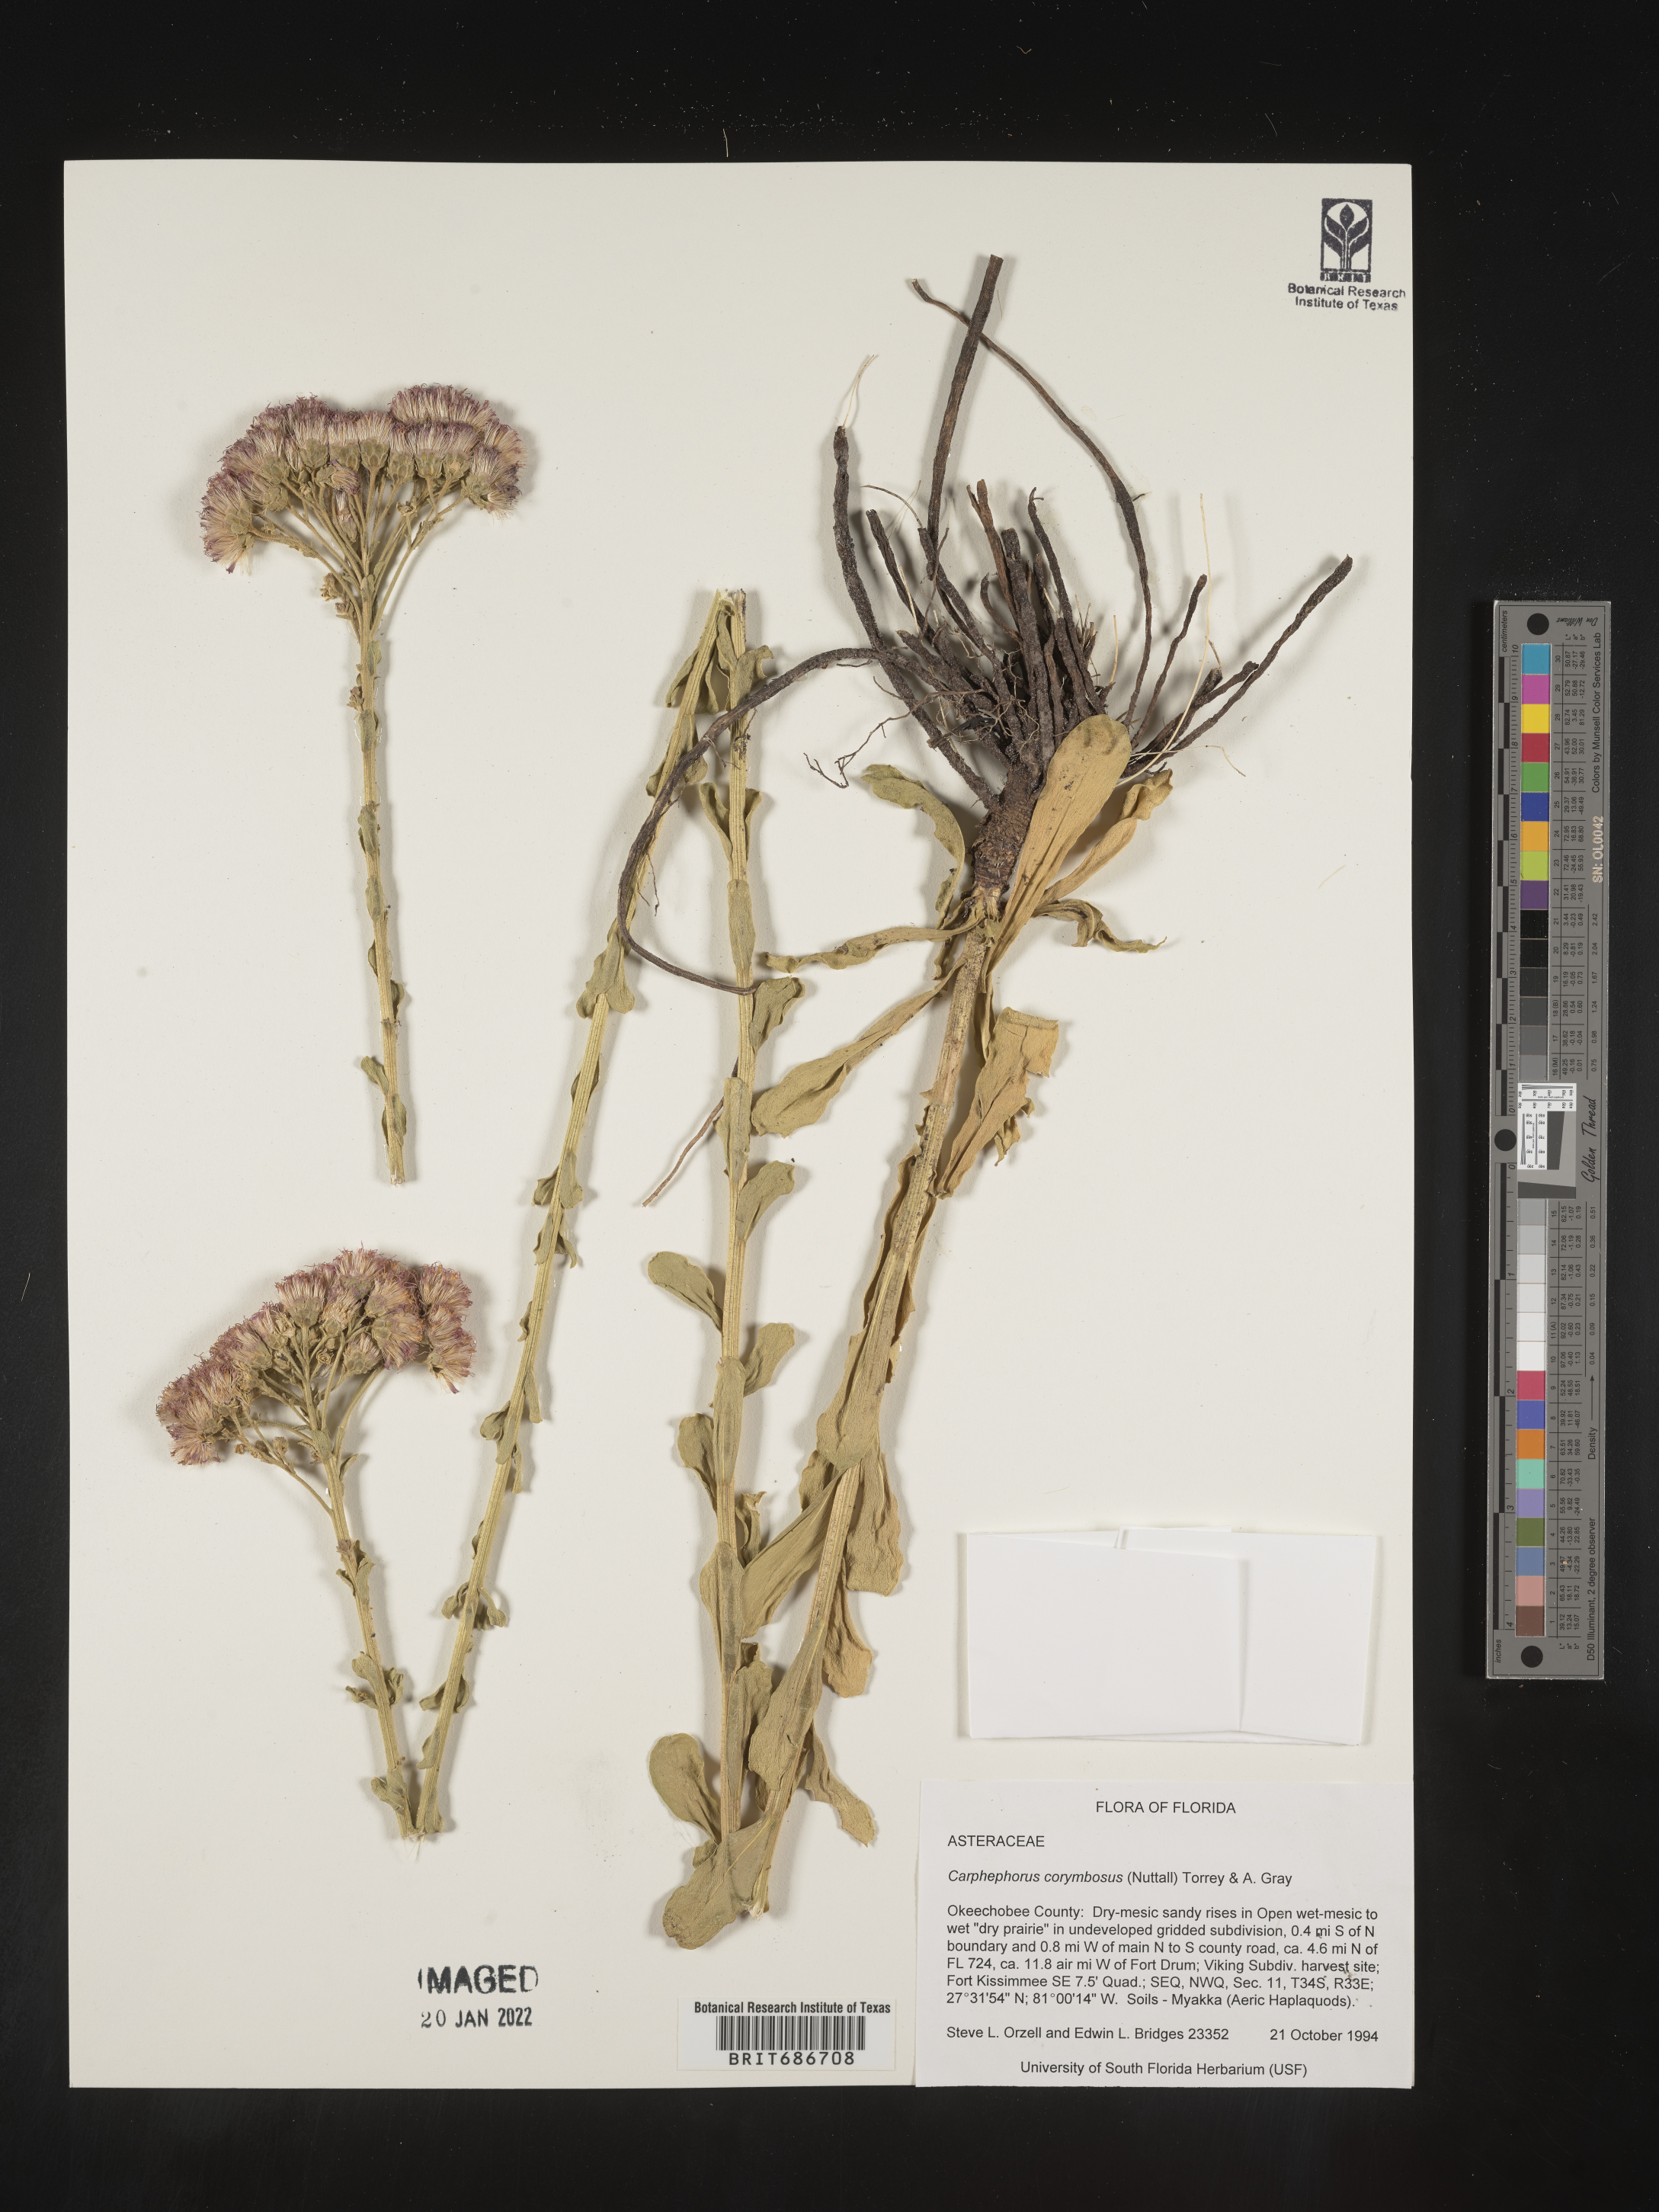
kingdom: Plantae
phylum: Tracheophyta
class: Magnoliopsida
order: Asterales
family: Asteraceae
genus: Carphephorus
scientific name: Carphephorus corymbosus
